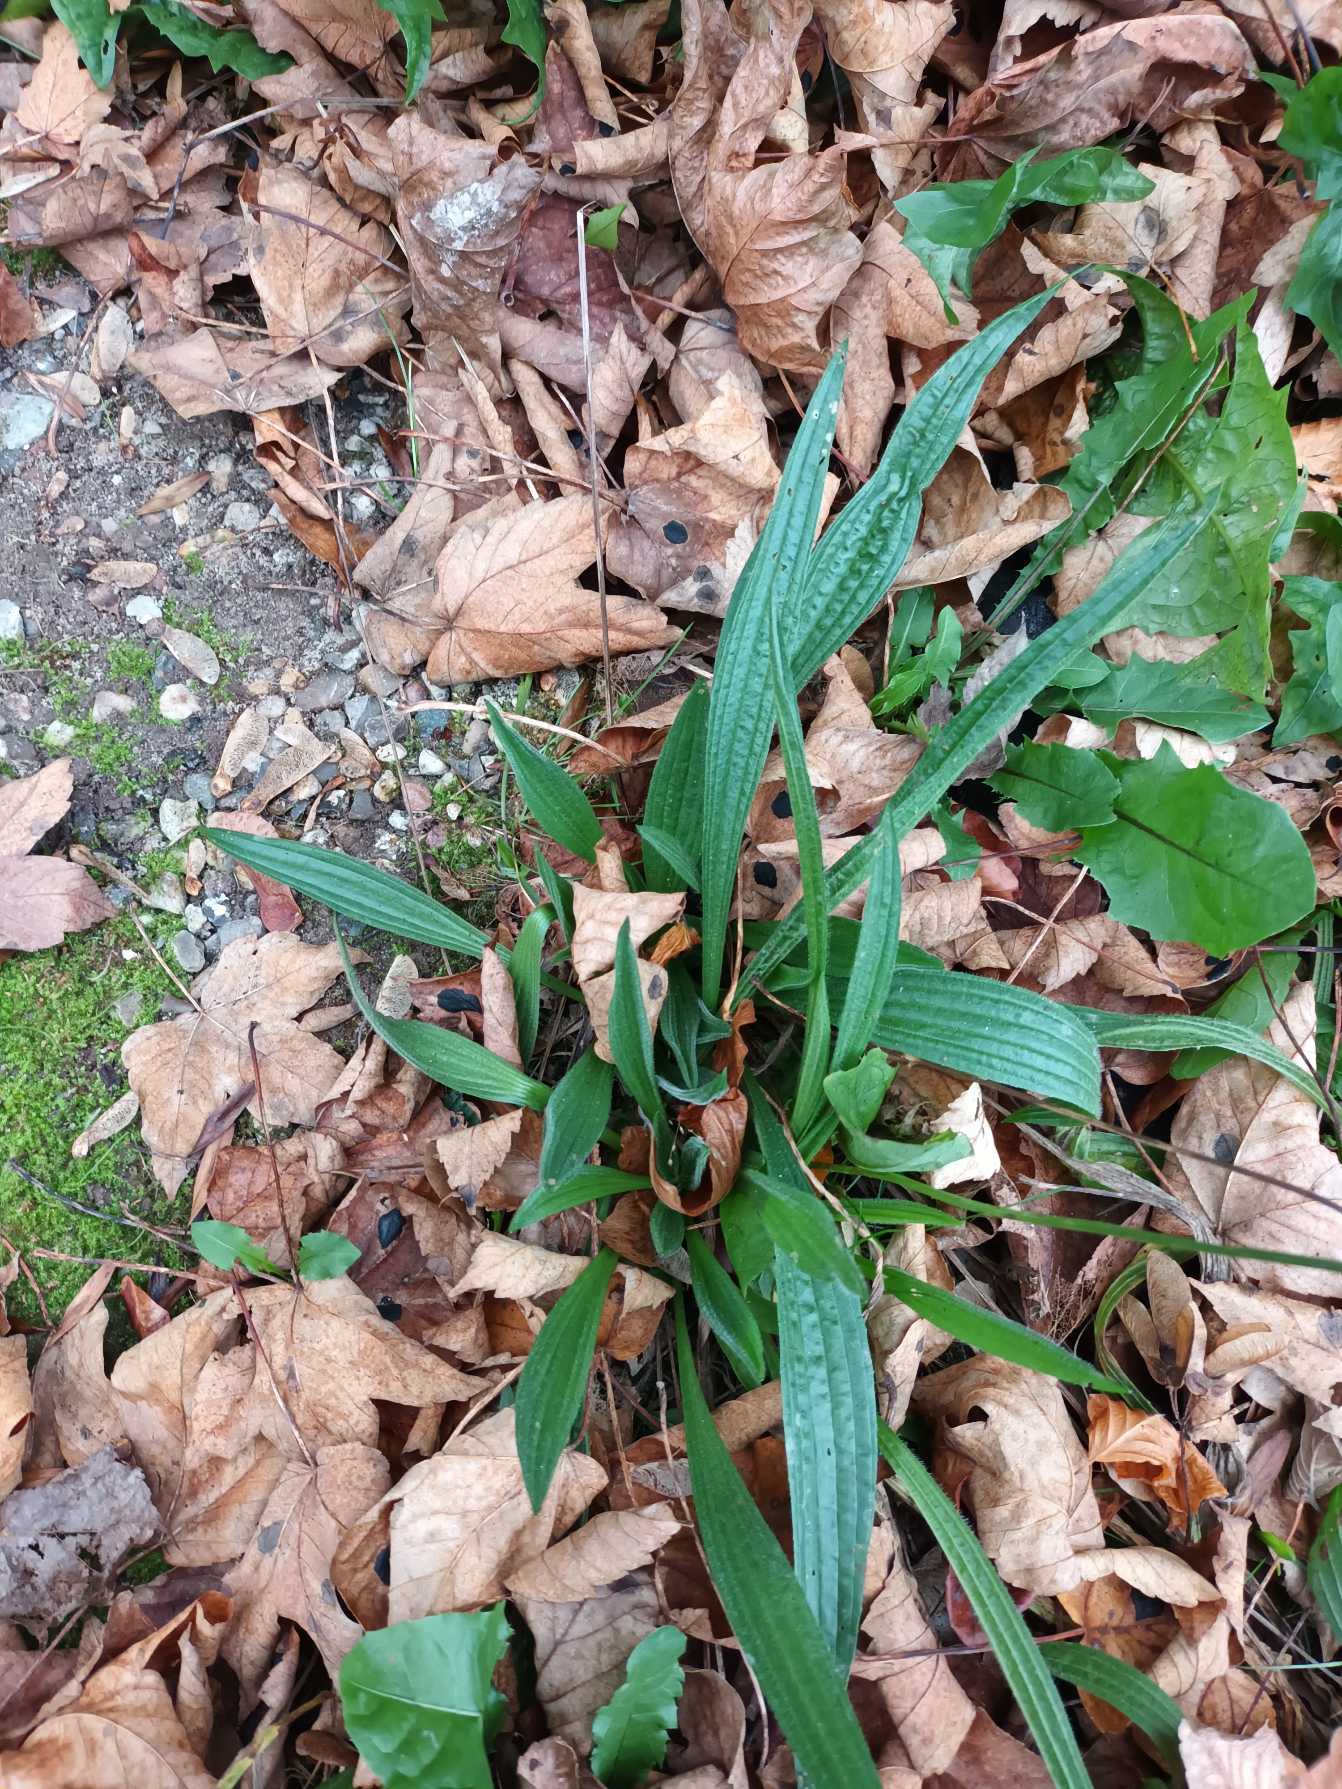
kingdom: Plantae
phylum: Tracheophyta
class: Magnoliopsida
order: Lamiales
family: Plantaginaceae
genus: Plantago
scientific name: Plantago lanceolata
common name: Lancet-vejbred
